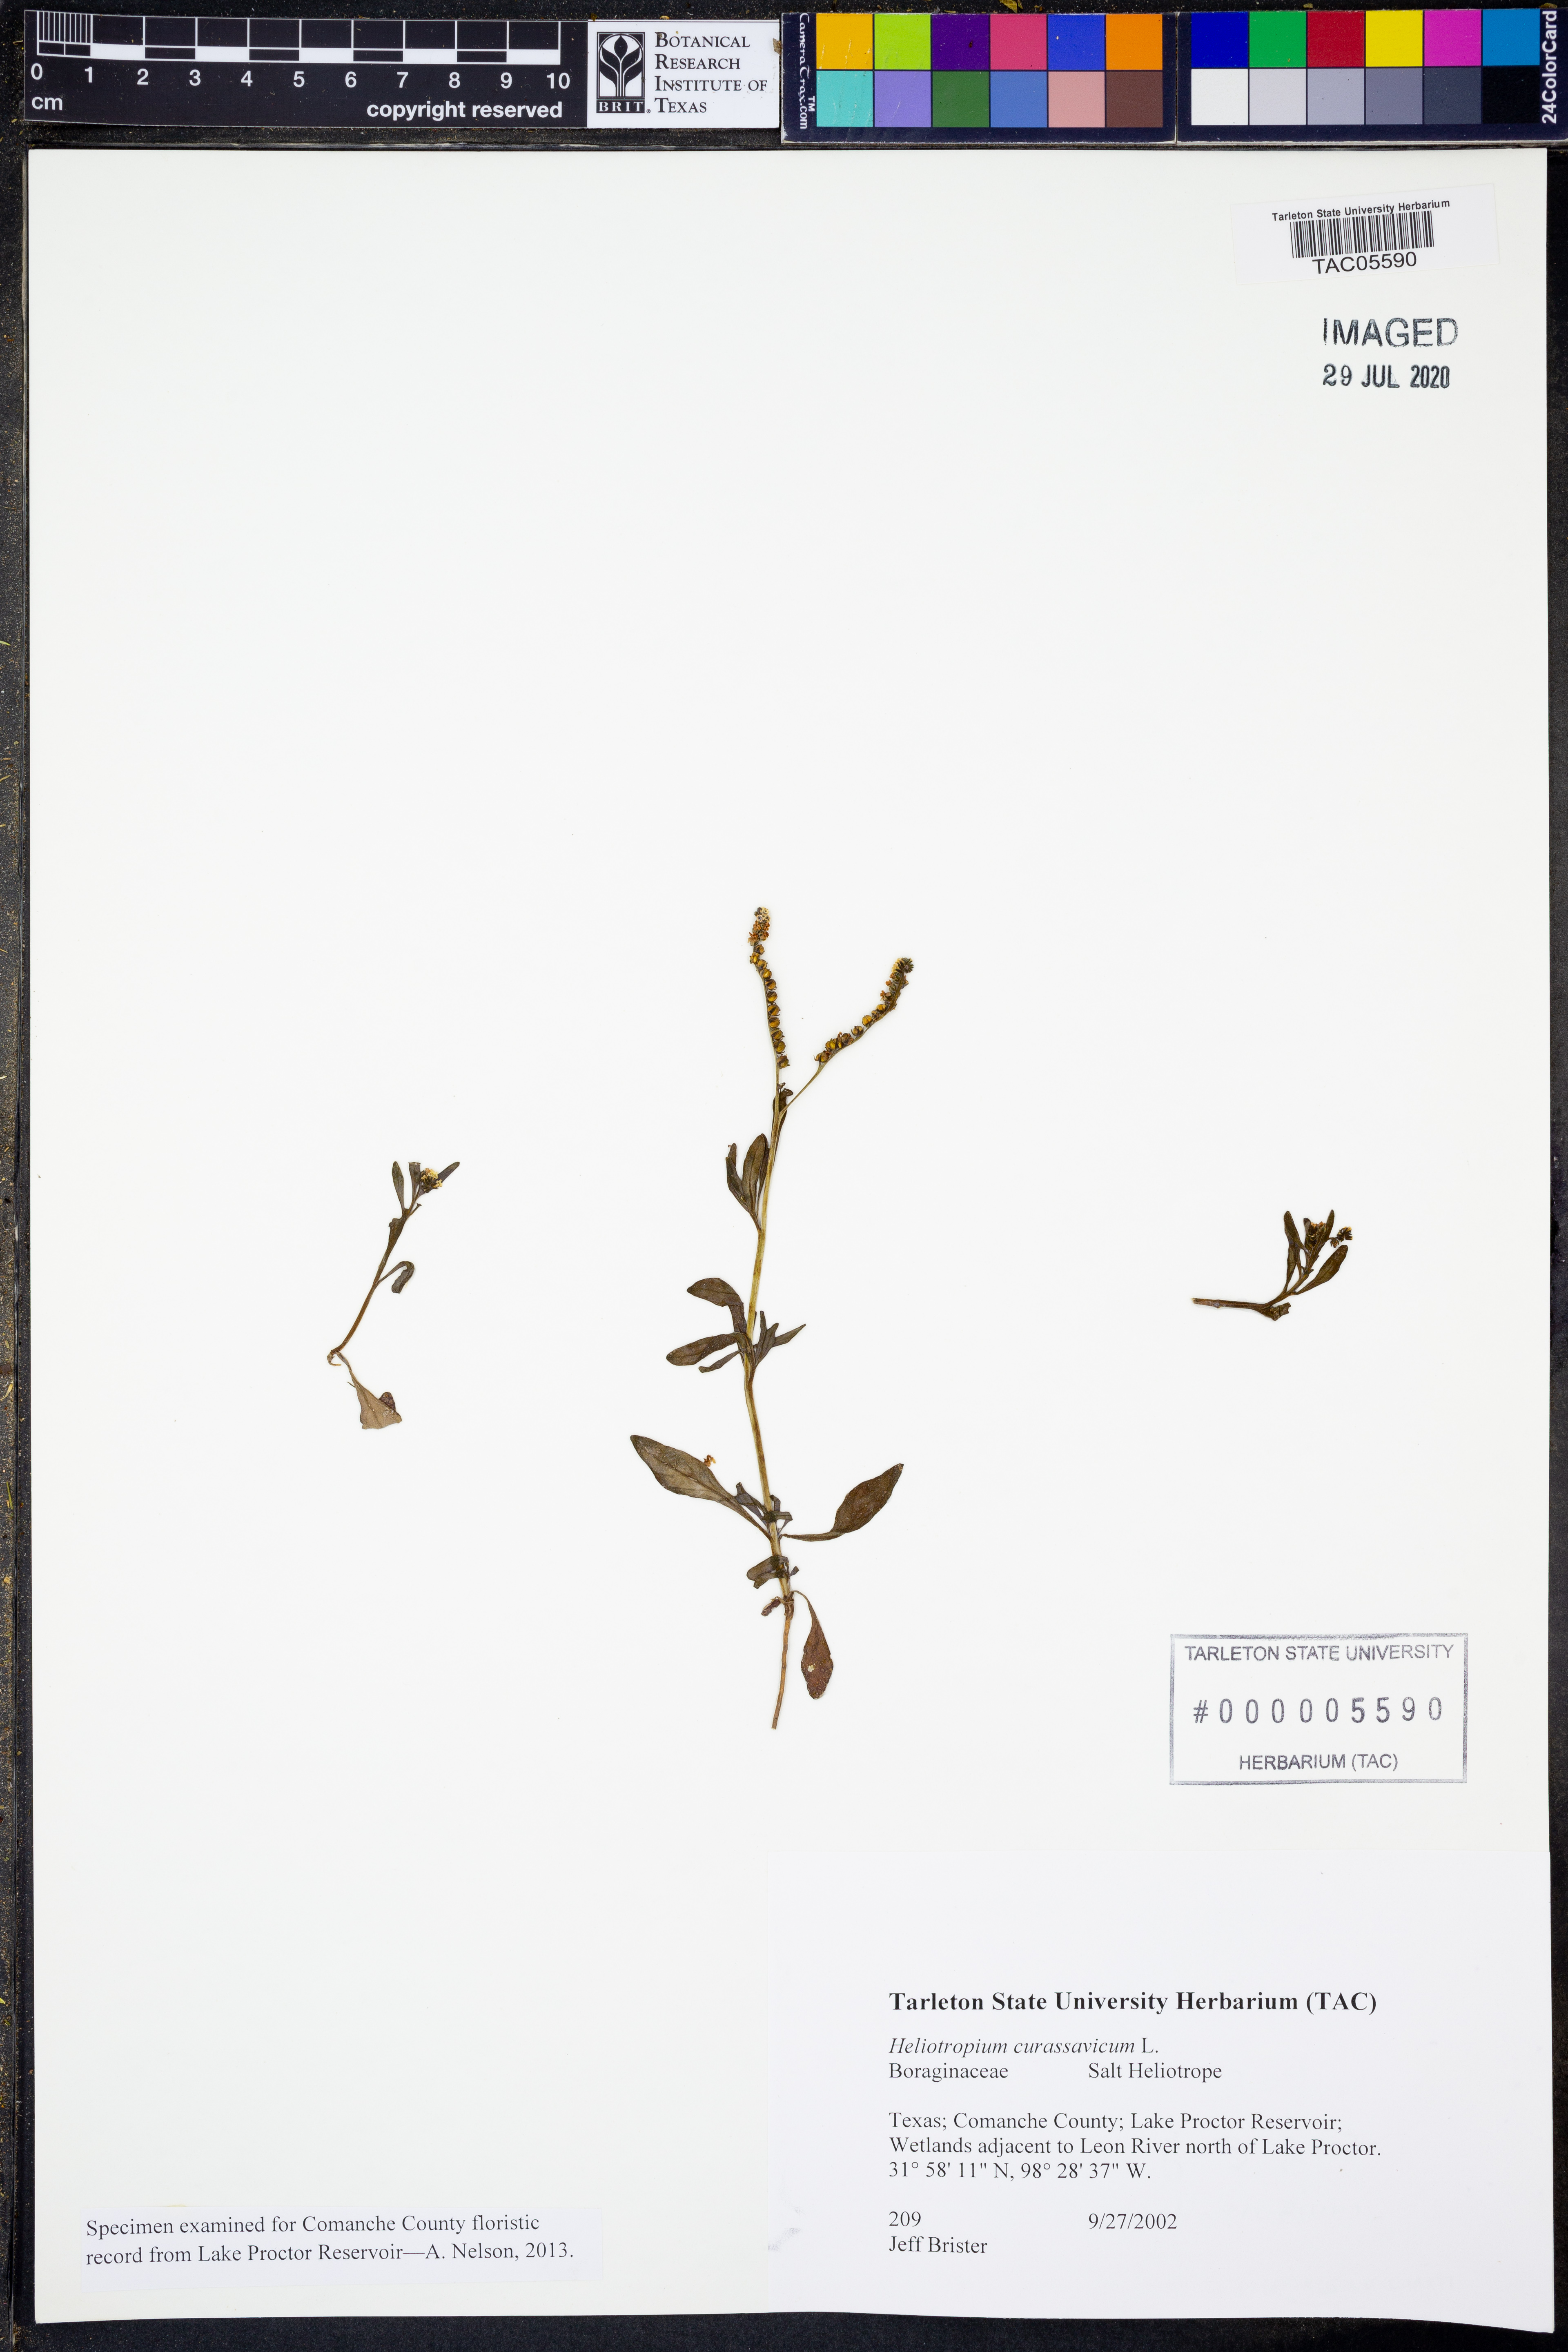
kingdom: Plantae
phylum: Tracheophyta
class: Magnoliopsida
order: Boraginales
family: Heliotropiaceae
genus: Heliotropium
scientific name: Heliotropium curassavicum
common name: Seaside heliotrope
